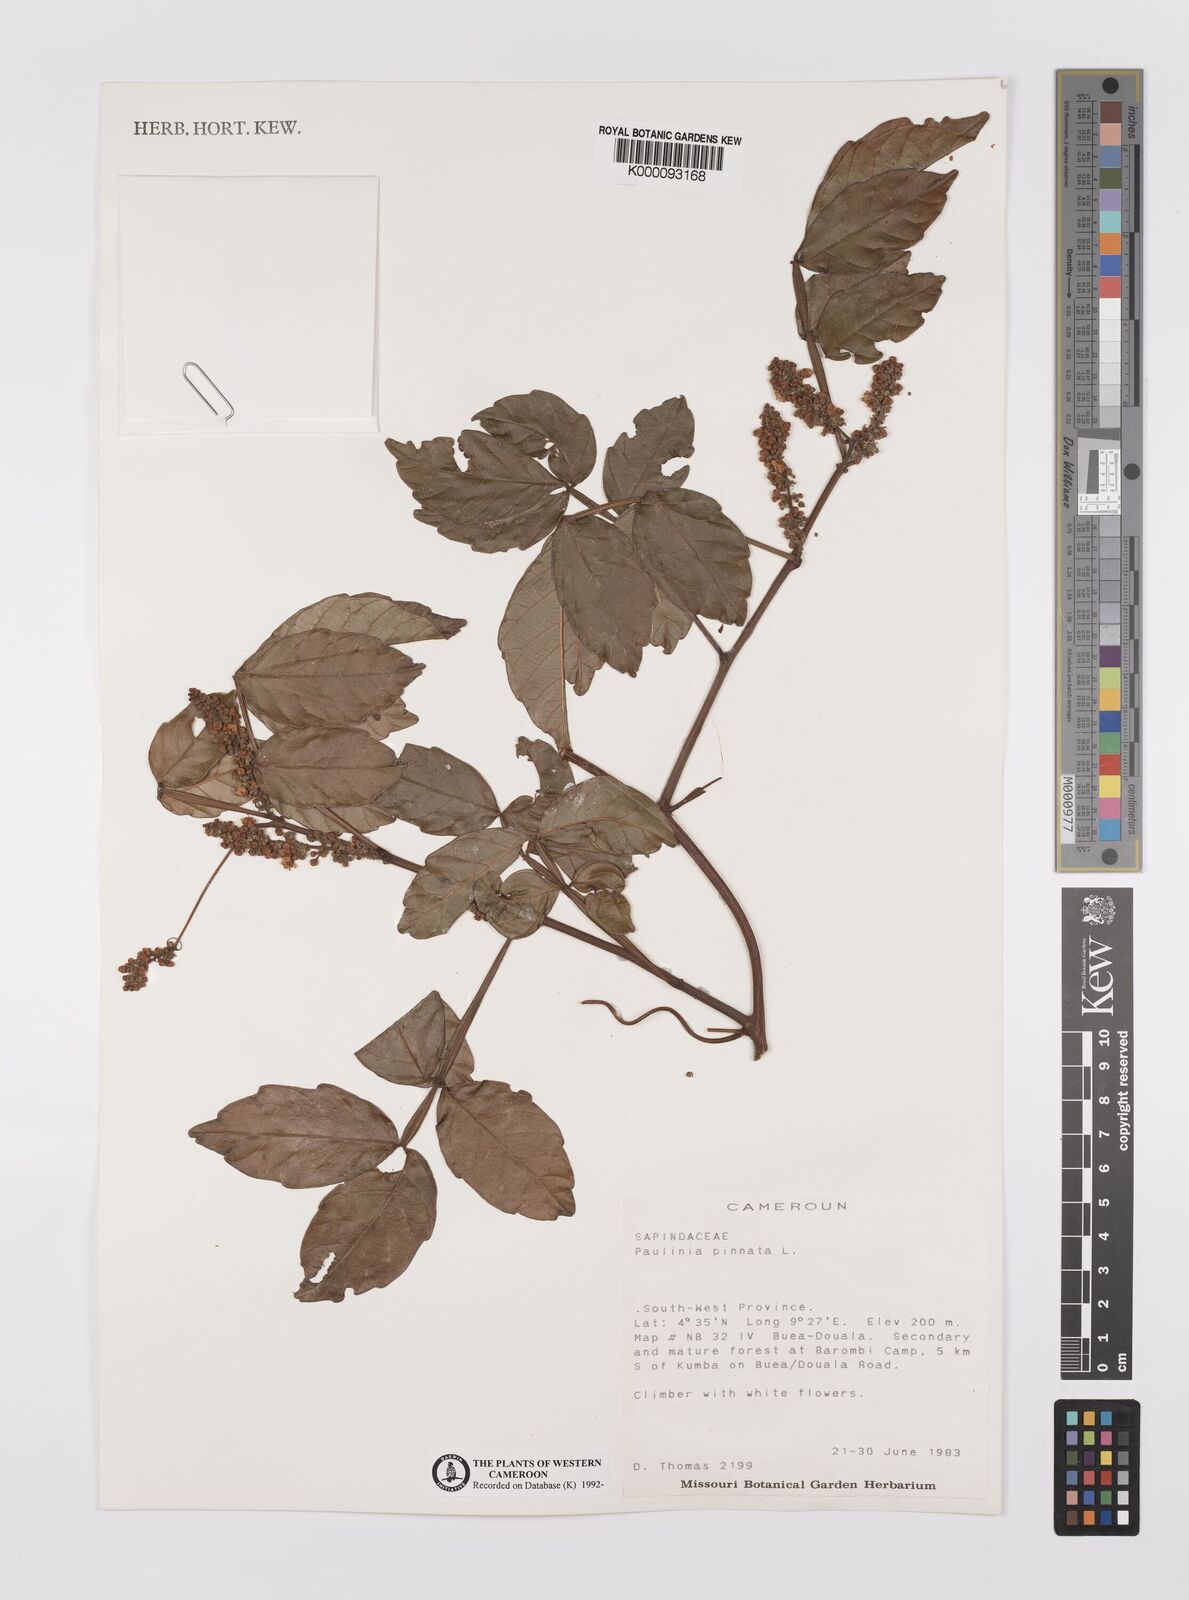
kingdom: Plantae
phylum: Tracheophyta
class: Magnoliopsida
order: Sapindales
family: Sapindaceae
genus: Paullinia
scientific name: Paullinia pinnata
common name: Barbasco
